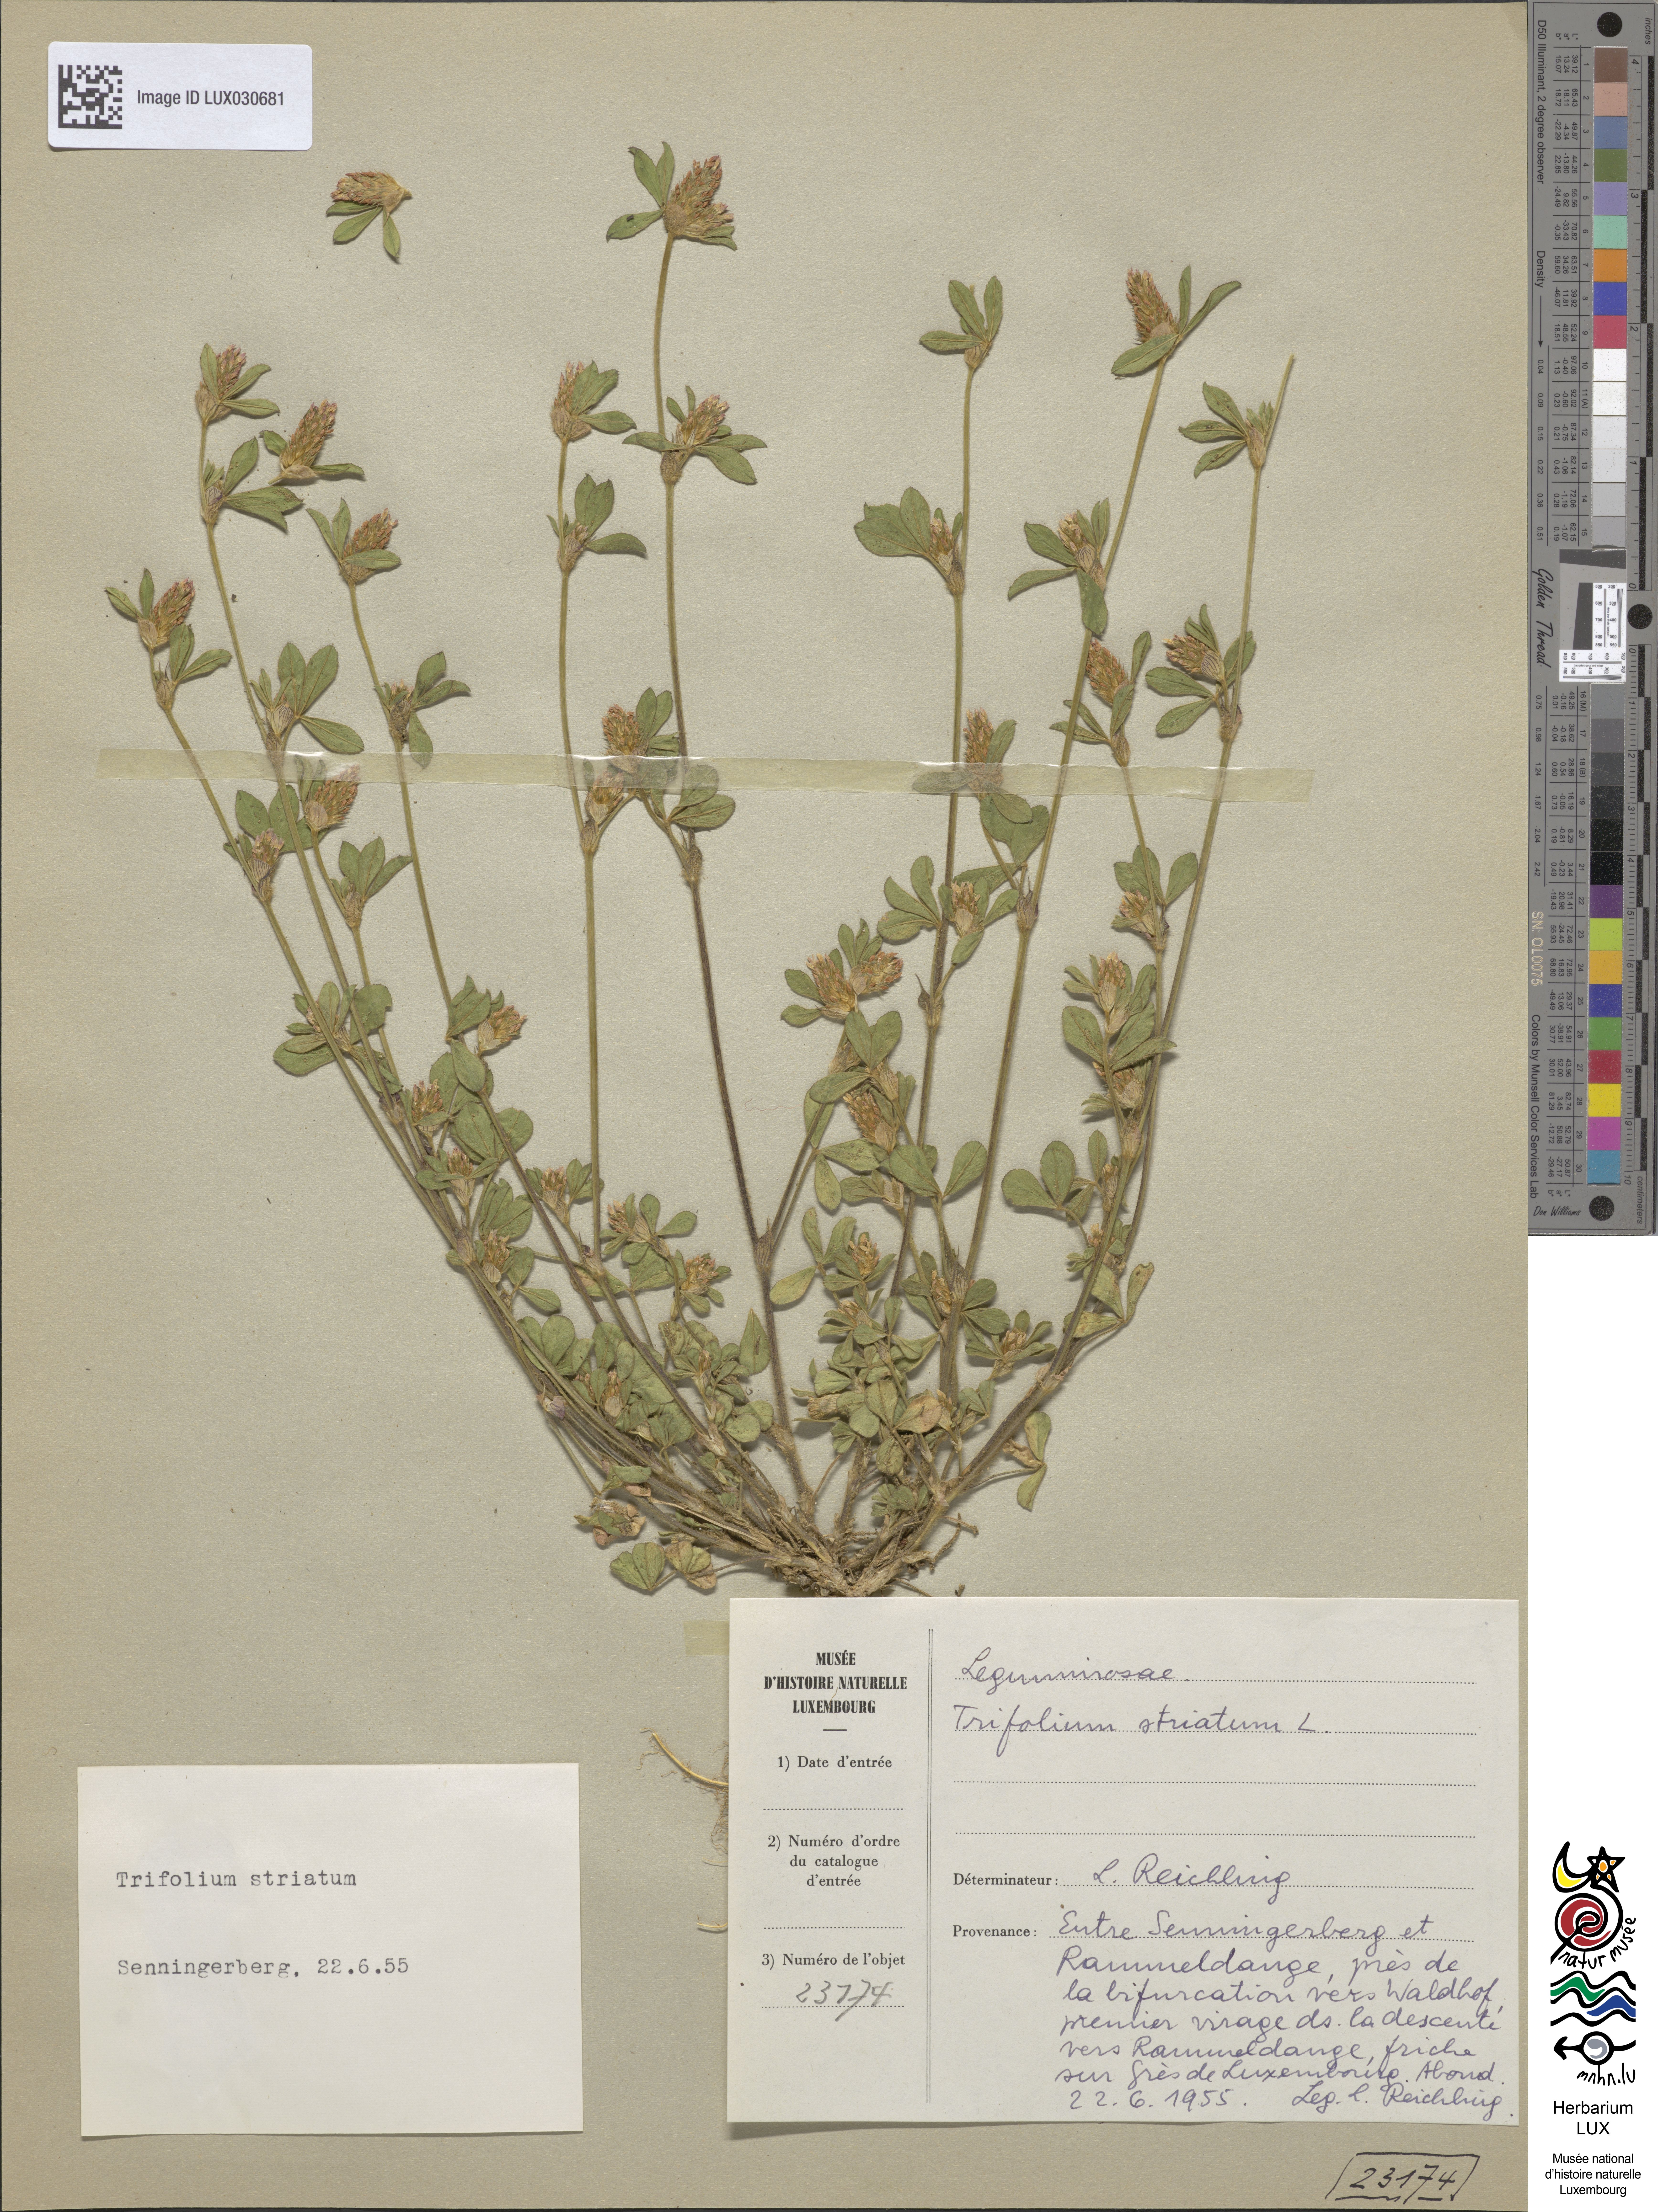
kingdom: Plantae
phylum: Tracheophyta
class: Magnoliopsida
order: Fabales
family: Fabaceae
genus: Trifolium
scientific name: Trifolium striatum
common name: Knotted clover
